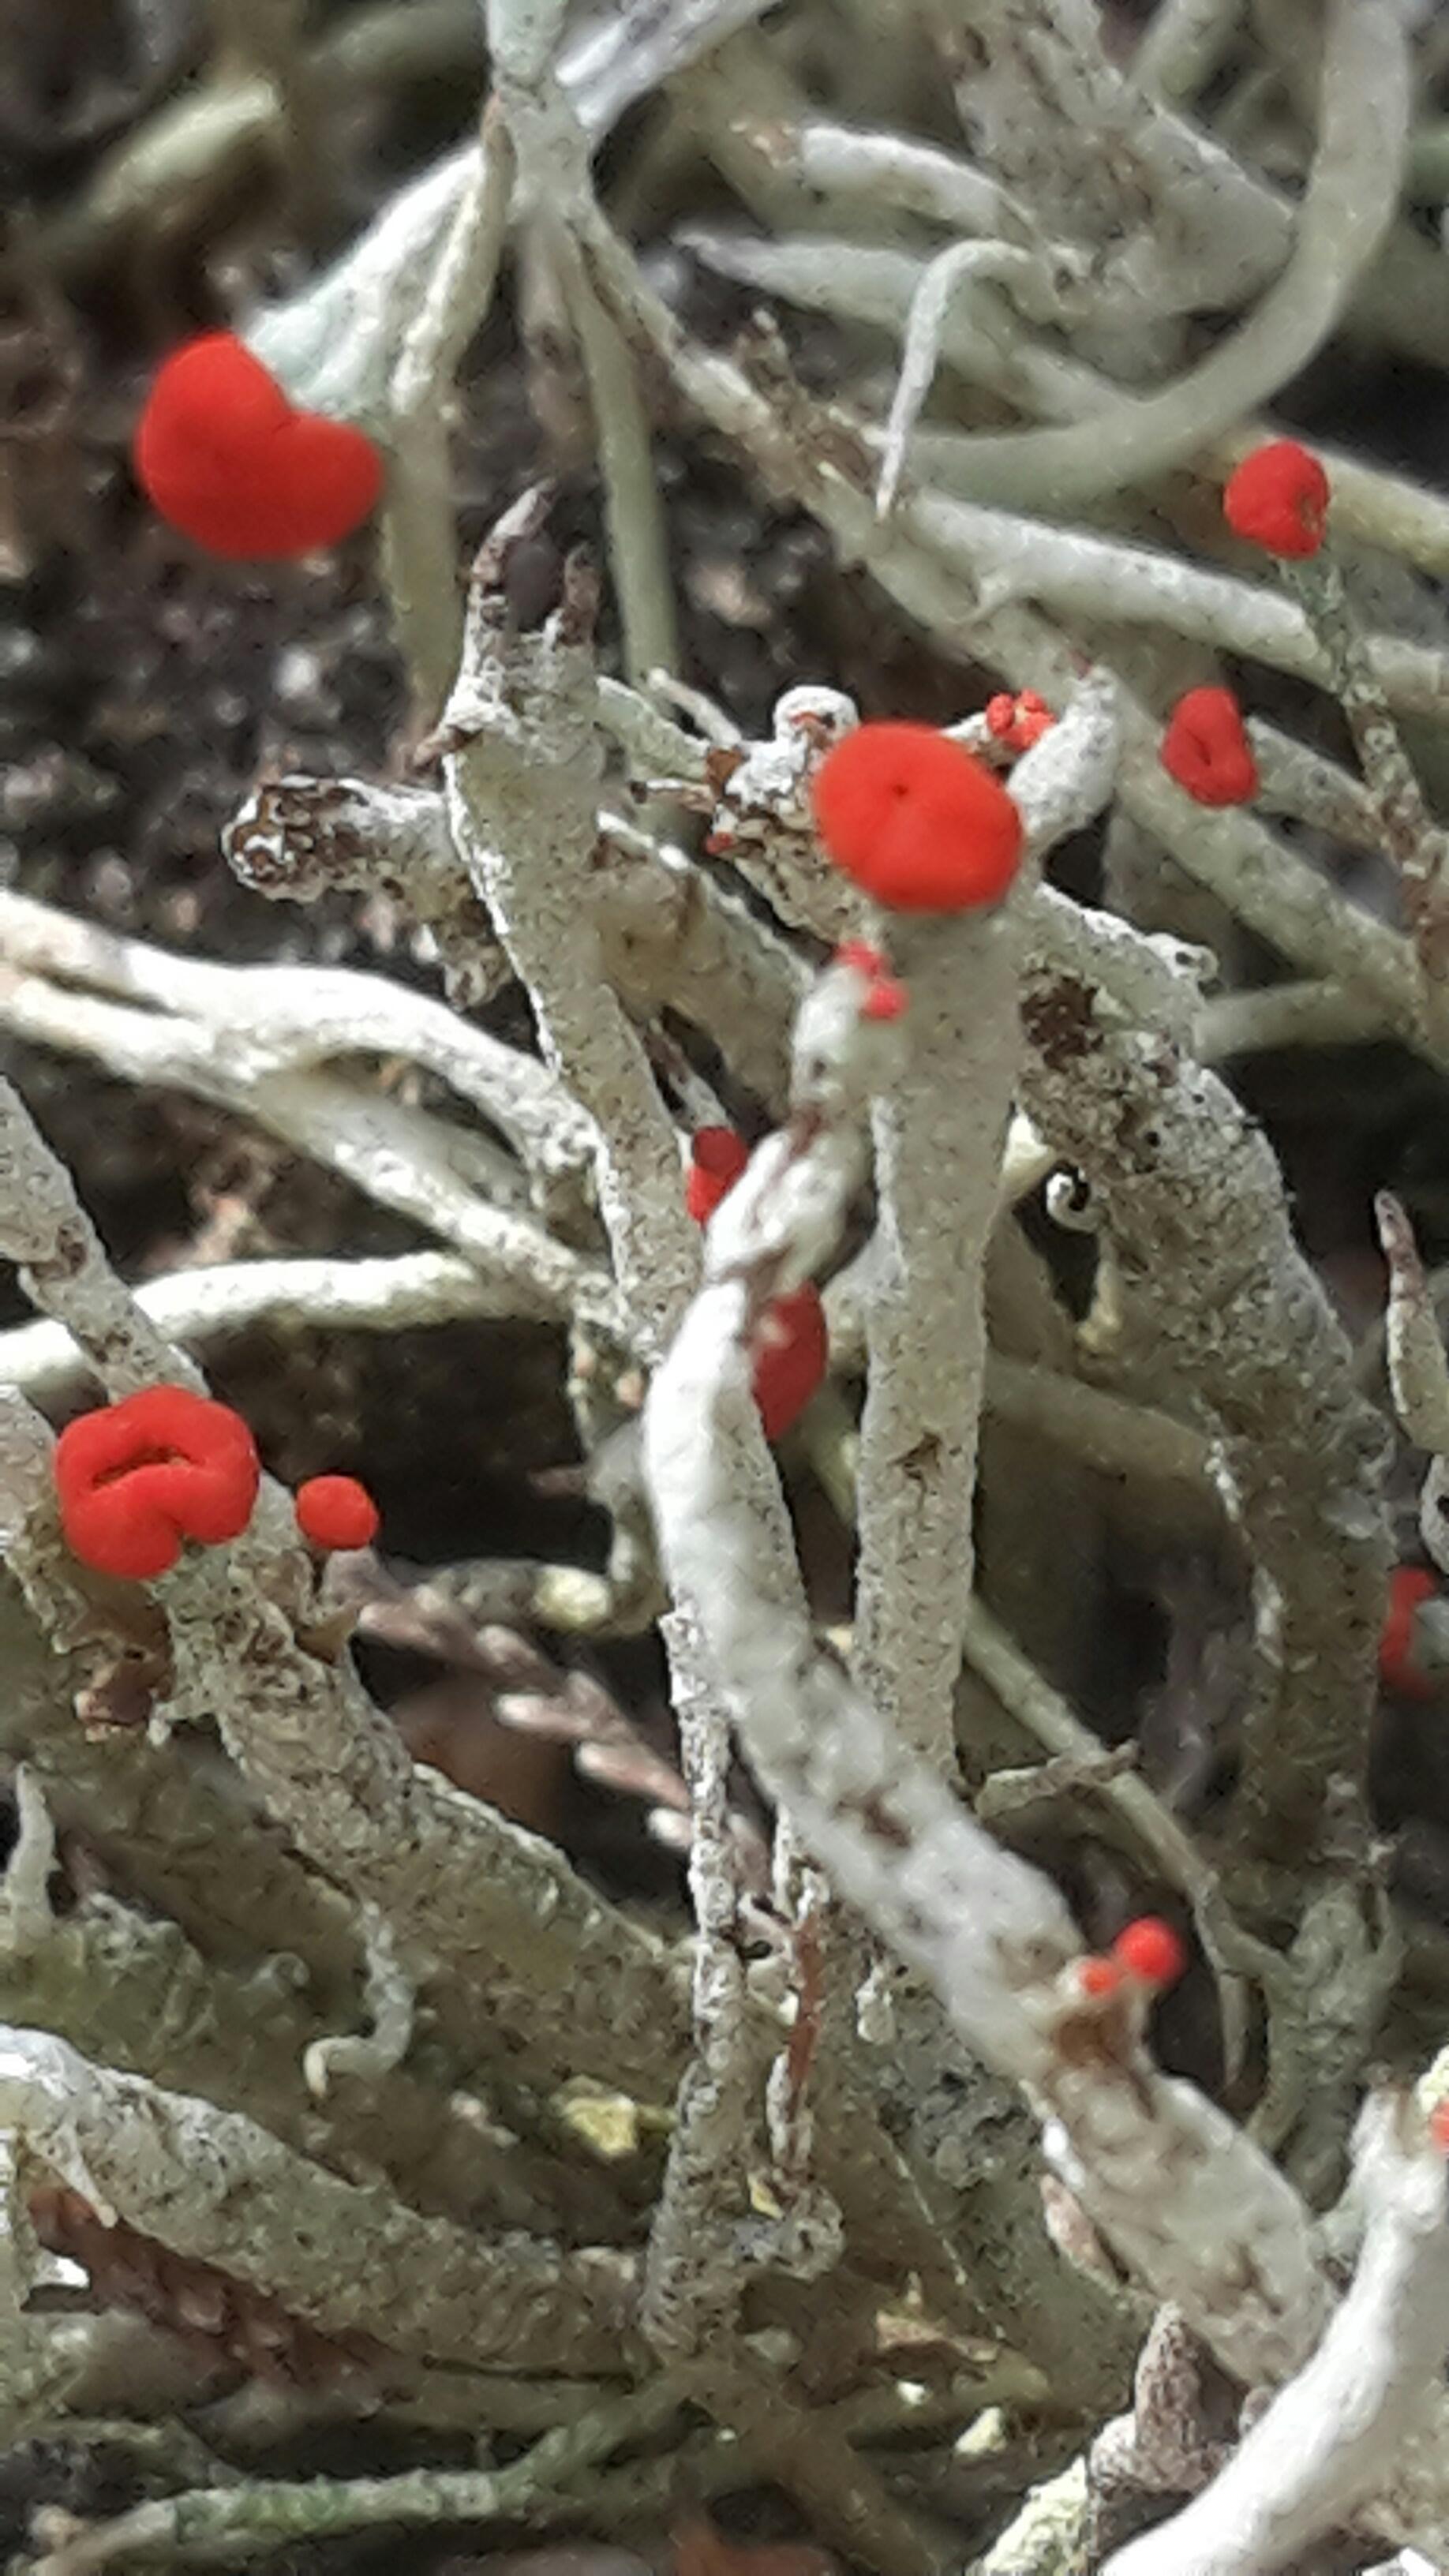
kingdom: Fungi
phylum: Ascomycota
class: Lecanoromycetes
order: Lecanorales
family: Cladoniaceae
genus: Cladonia
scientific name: Cladonia macilenta
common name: indsvunden bægerlav
